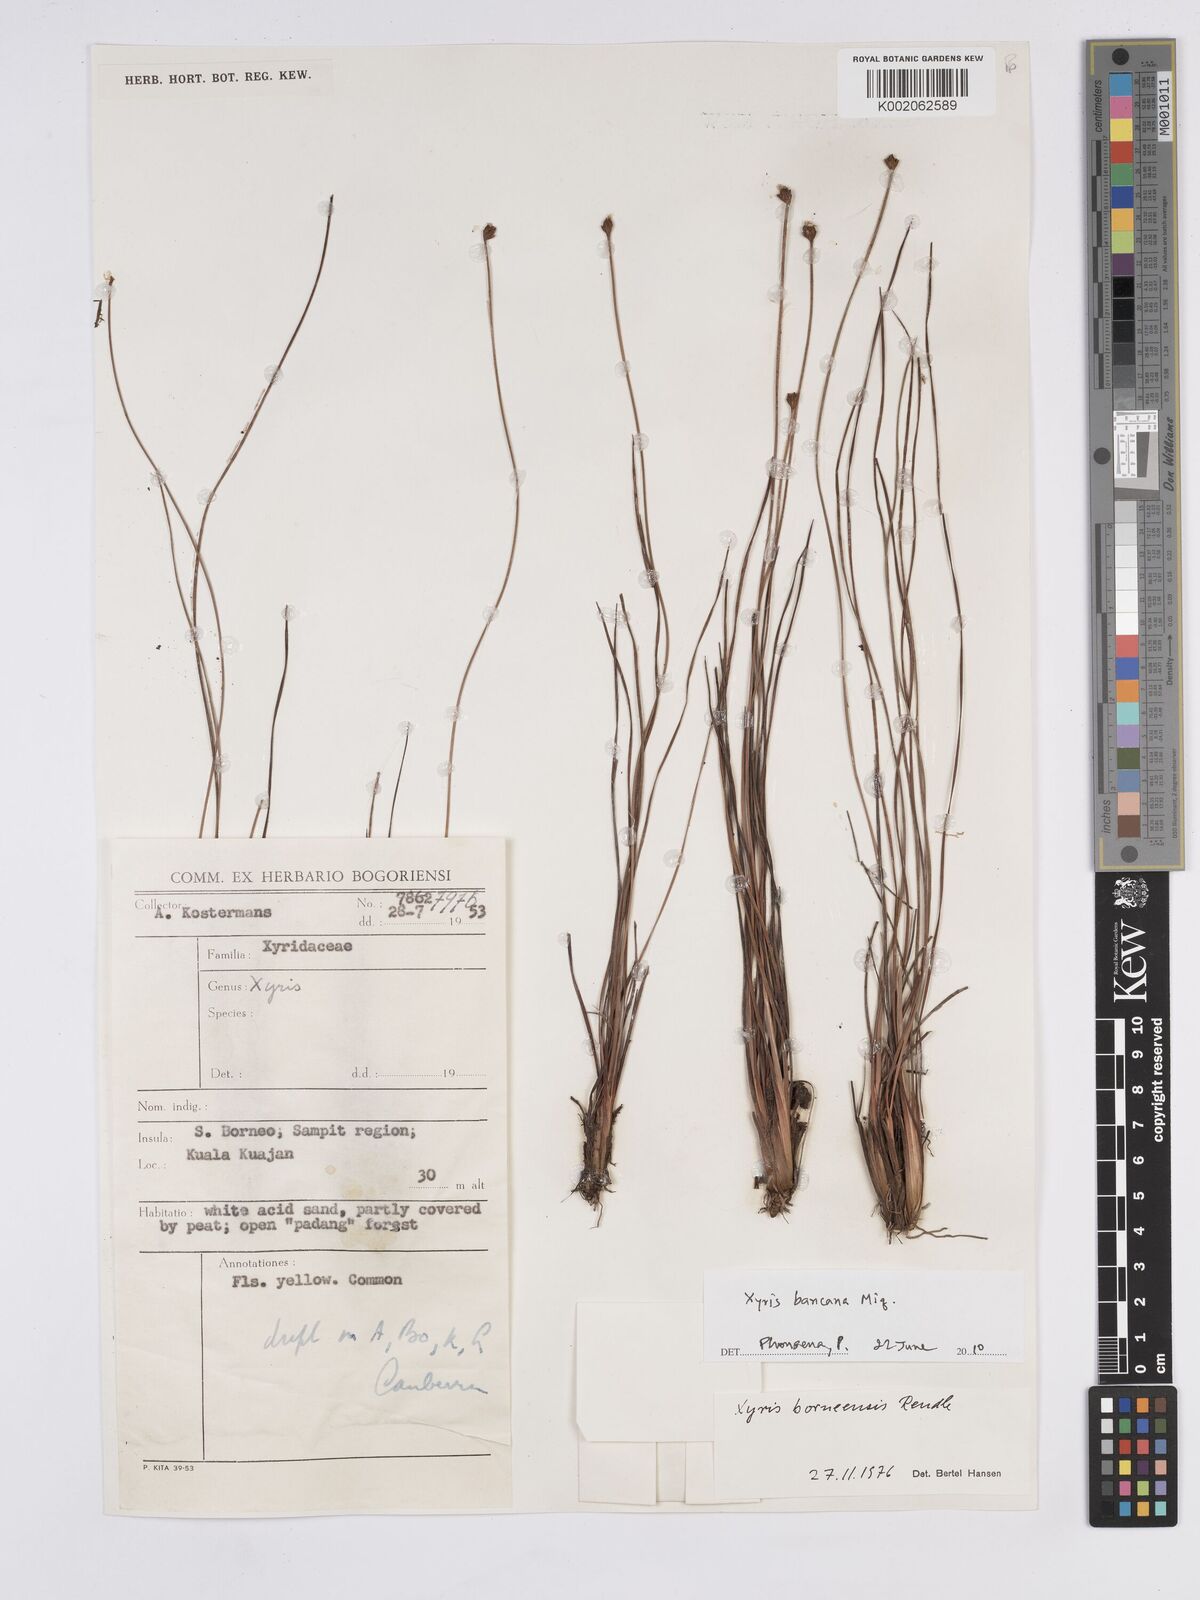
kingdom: Plantae
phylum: Tracheophyta
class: Liliopsida
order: Poales
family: Xyridaceae
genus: Xyris
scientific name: Xyris bancana
